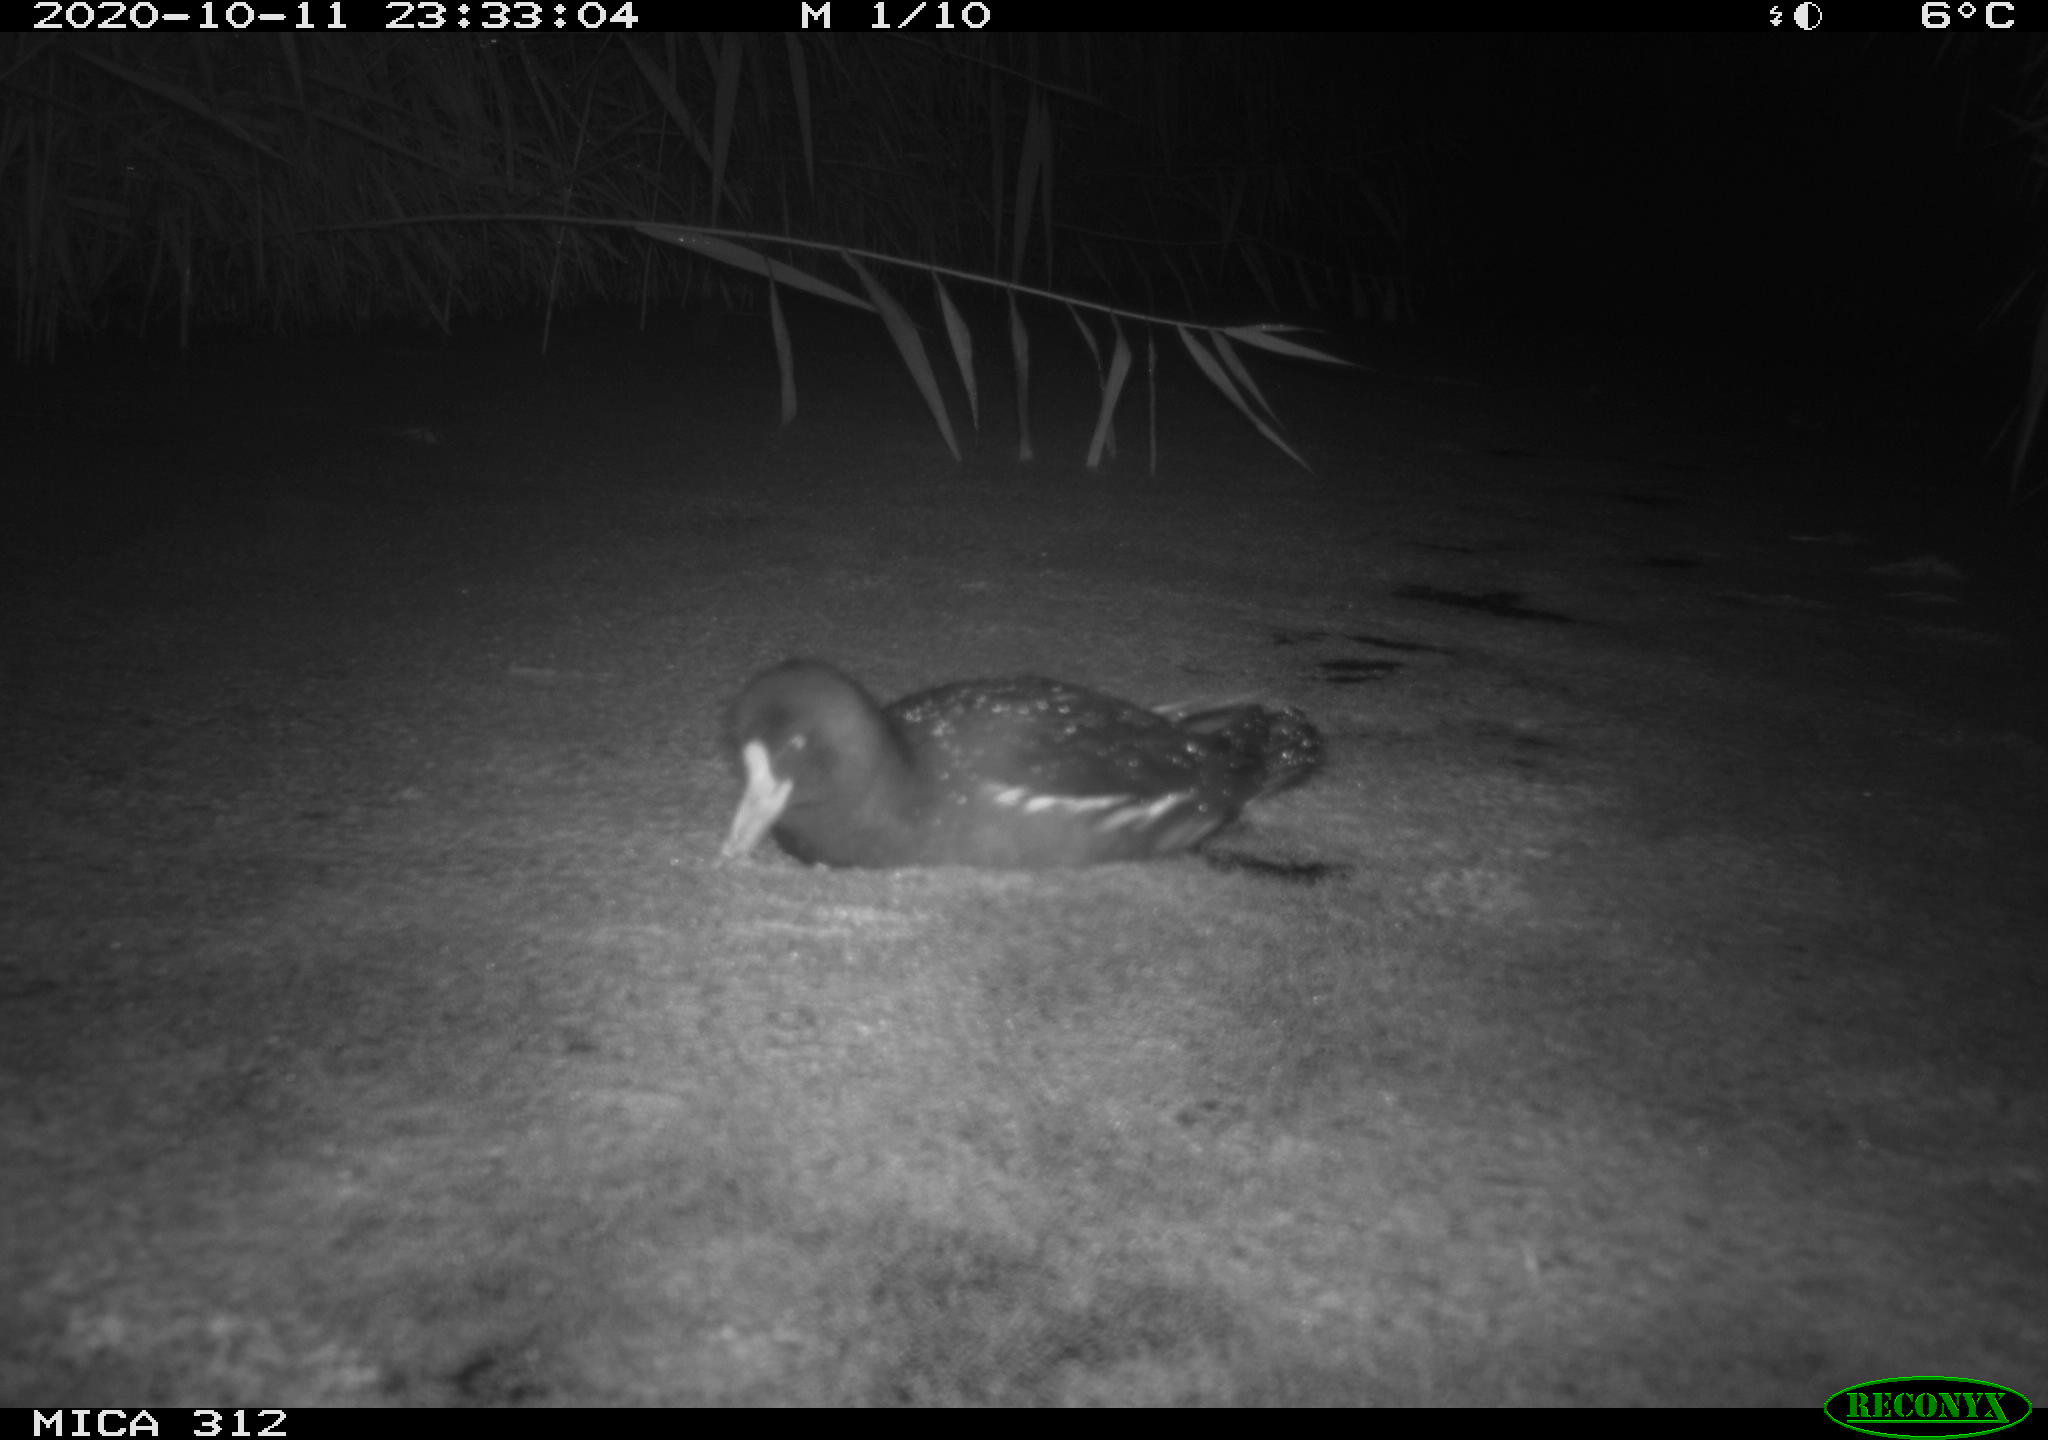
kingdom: Animalia
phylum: Chordata
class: Aves
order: Gruiformes
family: Rallidae
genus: Fulica
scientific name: Fulica atra
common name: Eurasian coot
